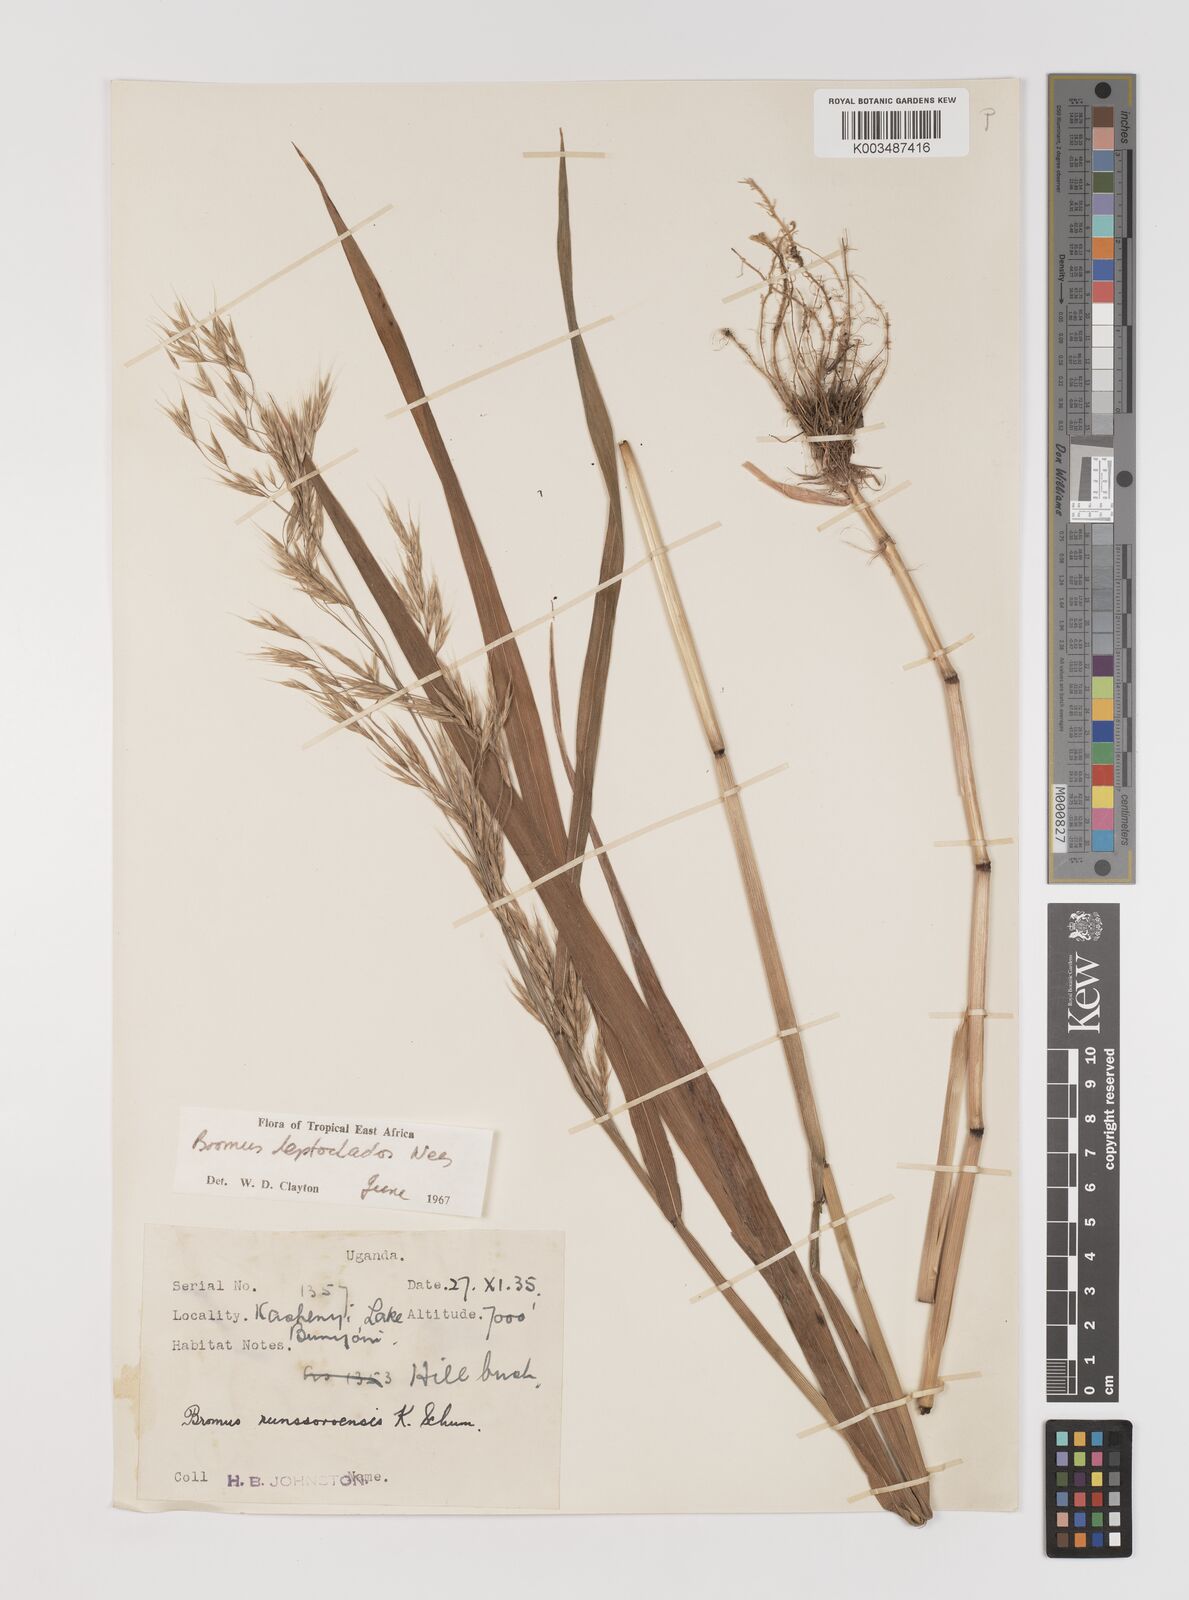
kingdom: Plantae
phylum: Tracheophyta
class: Liliopsida
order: Poales
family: Poaceae
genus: Bromus
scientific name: Bromus leptoclados
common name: Mountain bromegrass
